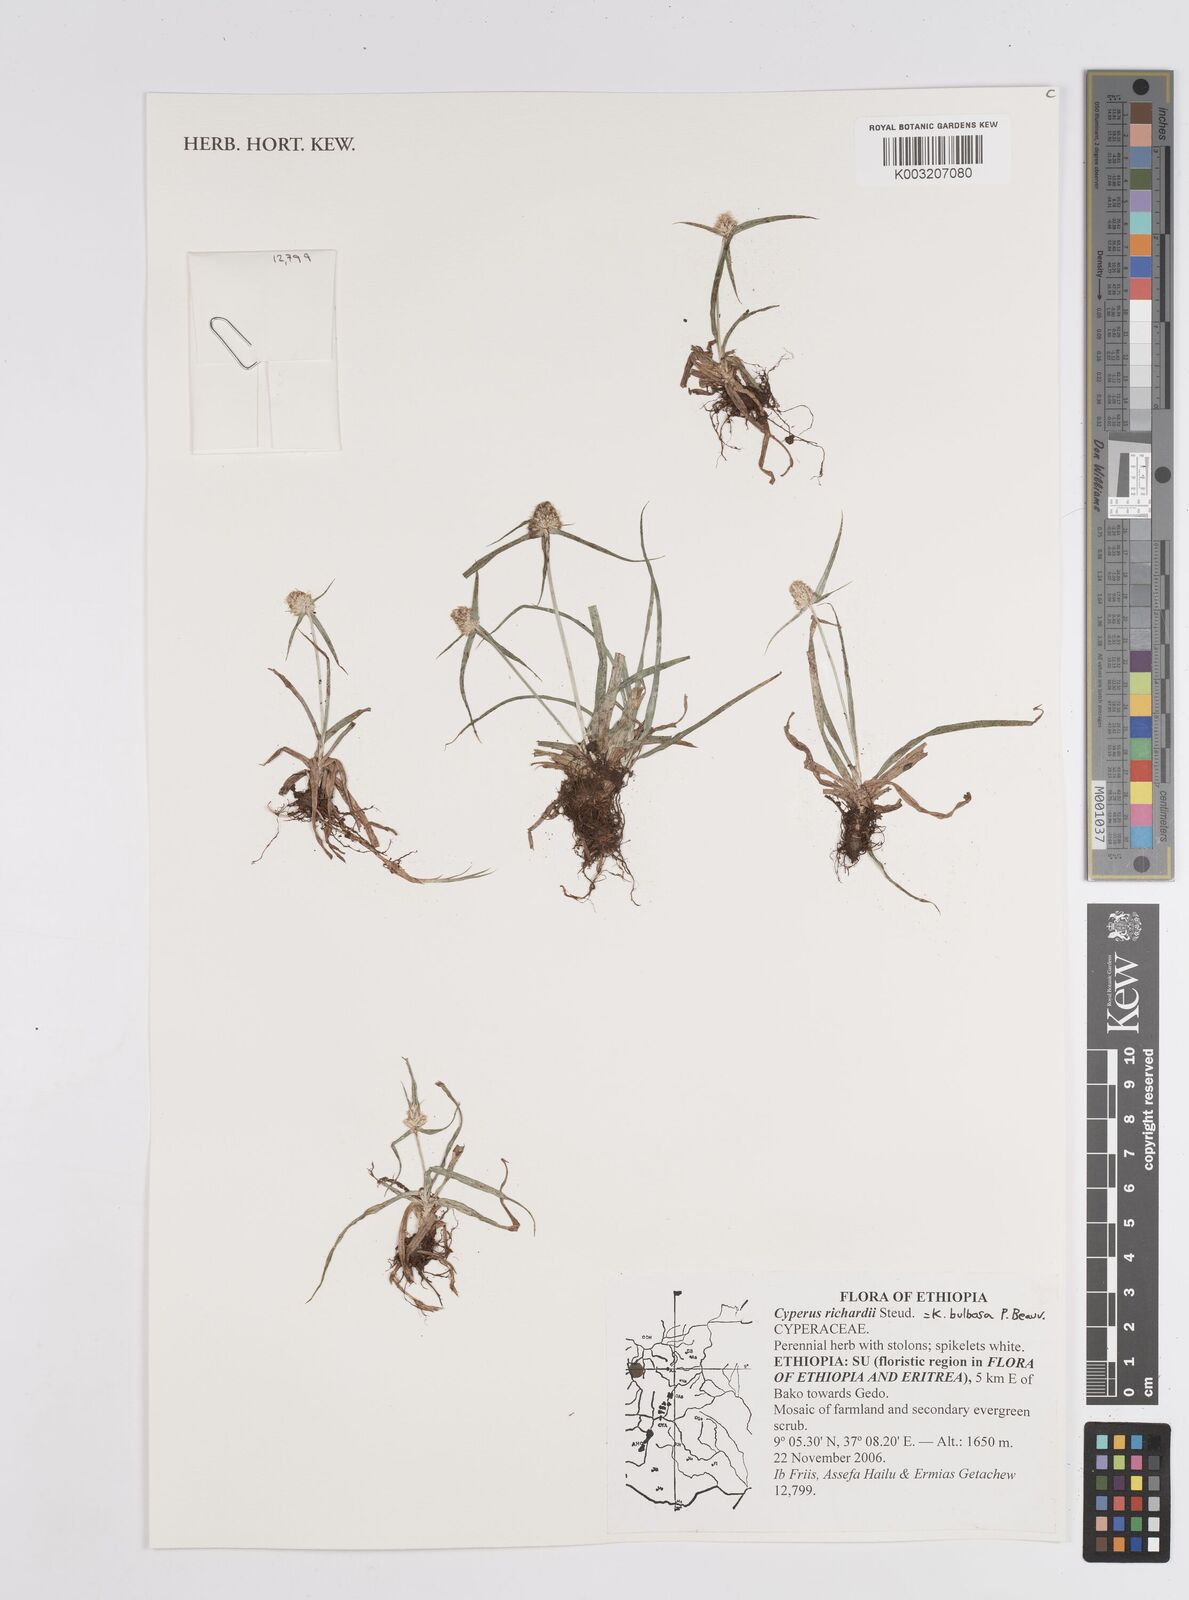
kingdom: Plantae
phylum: Tracheophyta
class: Liliopsida
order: Poales
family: Cyperaceae
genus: Cyperus
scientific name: Cyperus
